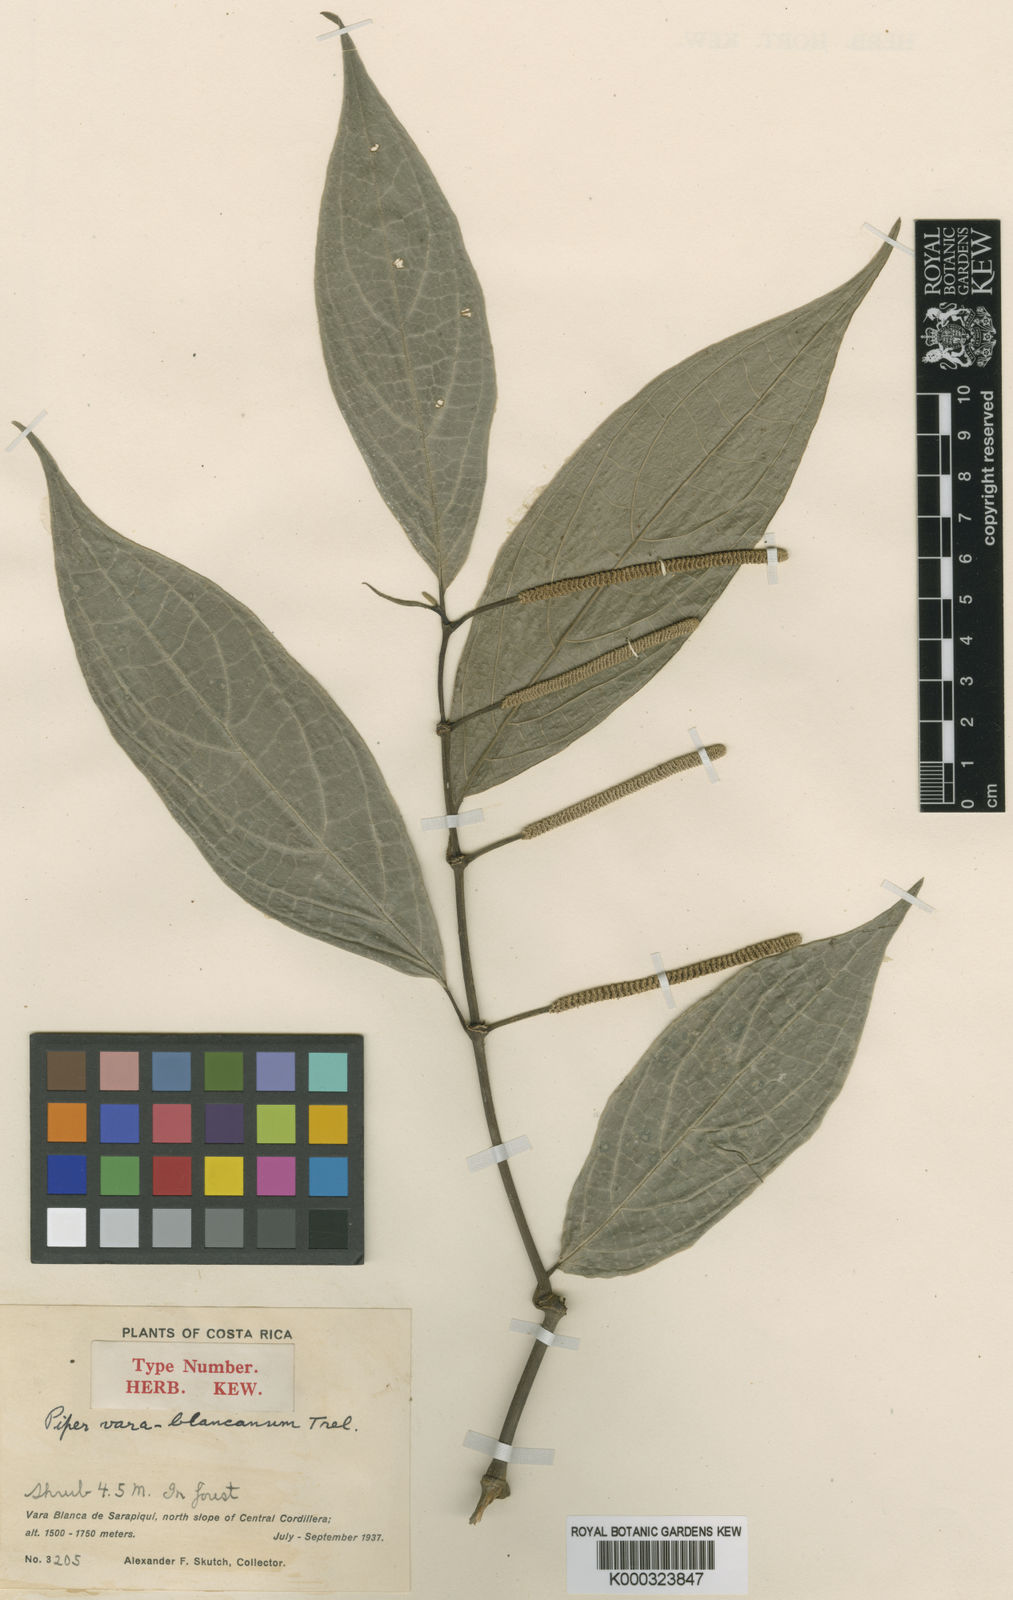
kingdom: Plantae
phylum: Tracheophyta
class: Magnoliopsida
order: Piperales
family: Piperaceae
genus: Piper
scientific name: Piper varablancanum
